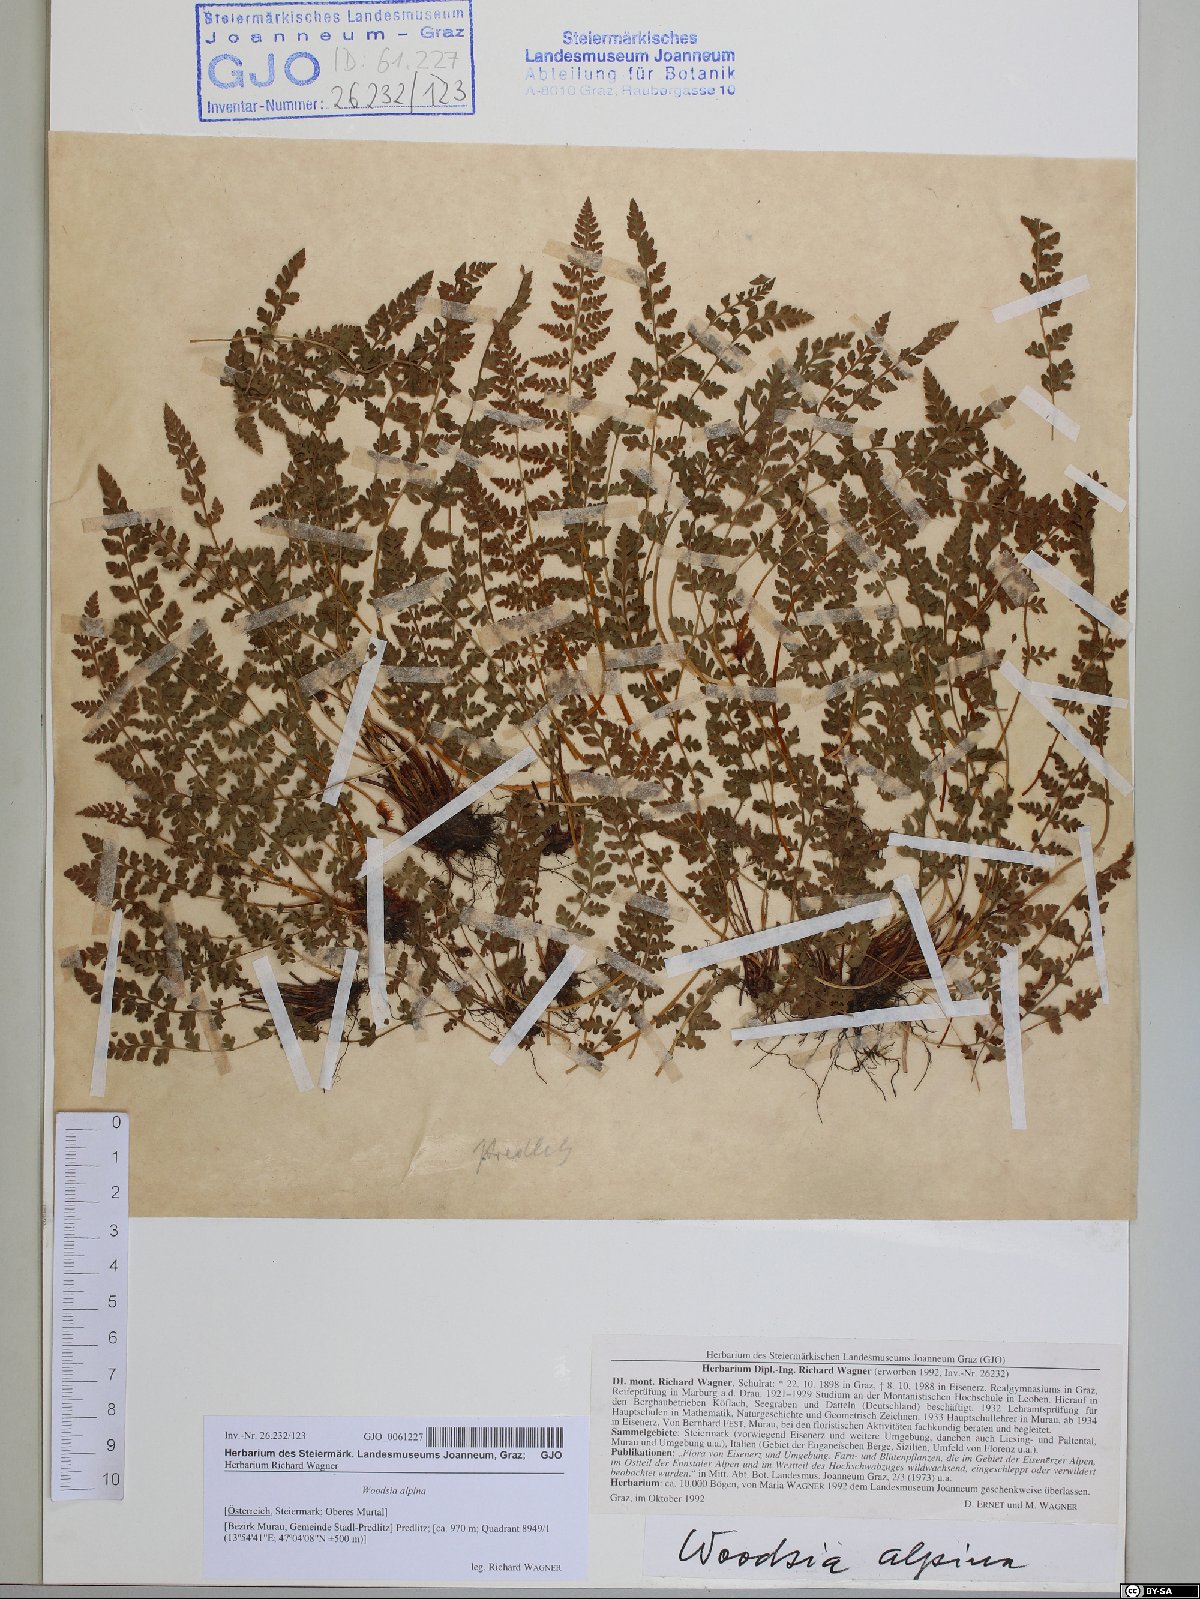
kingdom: Plantae
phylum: Tracheophyta
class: Polypodiopsida
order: Polypodiales
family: Woodsiaceae
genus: Woodsia
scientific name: Woodsia alpina
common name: Alpine woodsia
